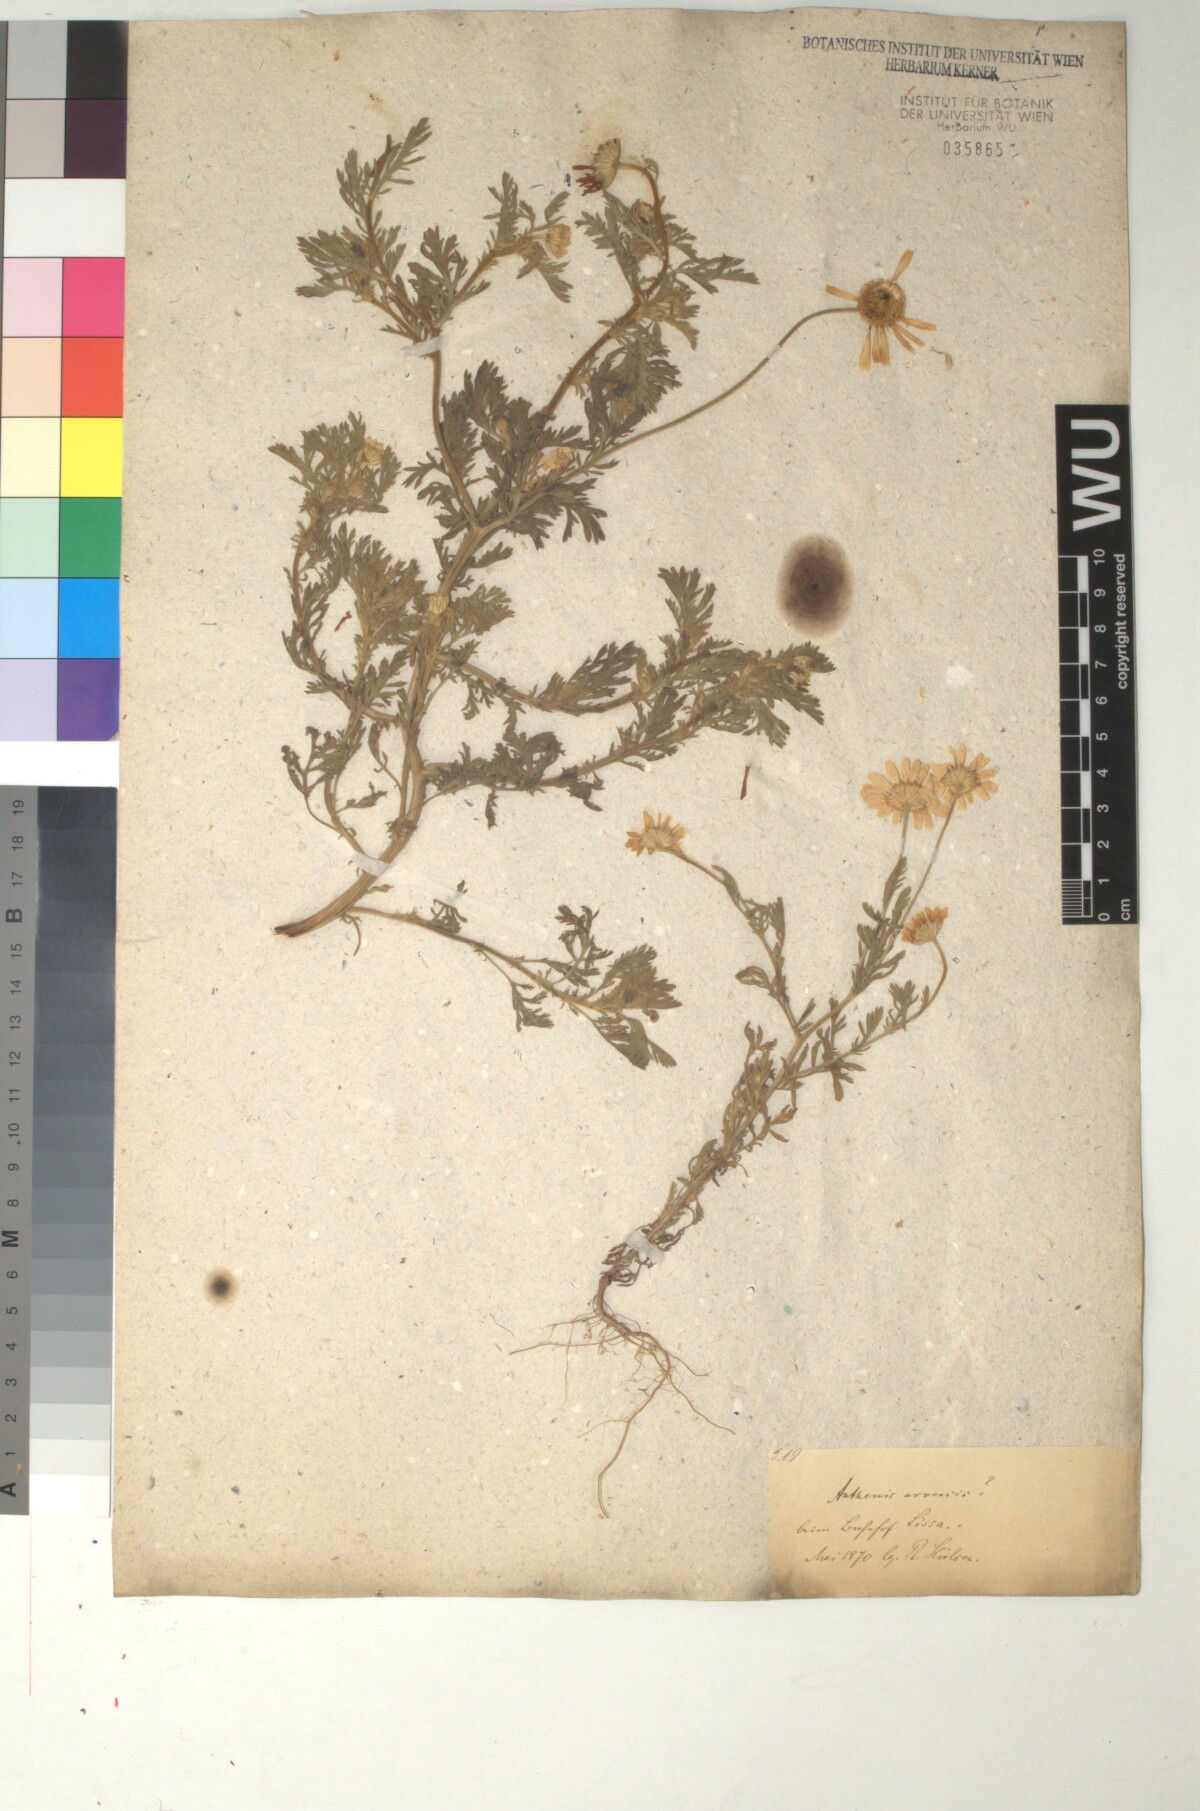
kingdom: Plantae
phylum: Tracheophyta
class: Magnoliopsida
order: Asterales
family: Asteraceae
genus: Anthemis
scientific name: Anthemis arvensis
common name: Corn chamomile
